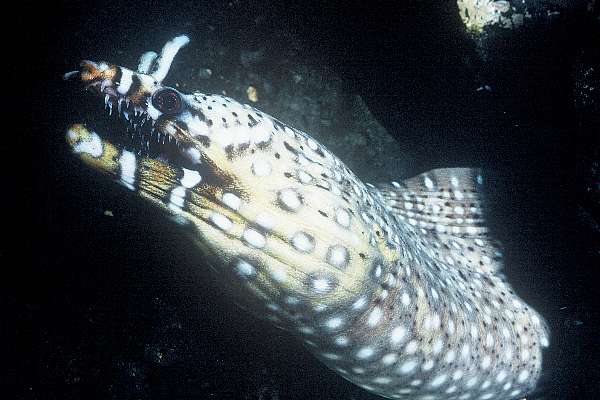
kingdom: Animalia
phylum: Chordata
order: Anguilliformes
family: Muraenidae
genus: Enchelycore
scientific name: Enchelycore pardalis
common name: Dragon moray
